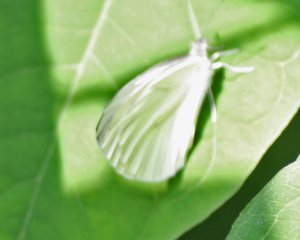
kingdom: Animalia
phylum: Arthropoda
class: Insecta
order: Lepidoptera
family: Pieridae
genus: Pieris
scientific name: Pieris oleracea
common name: Mustard White
